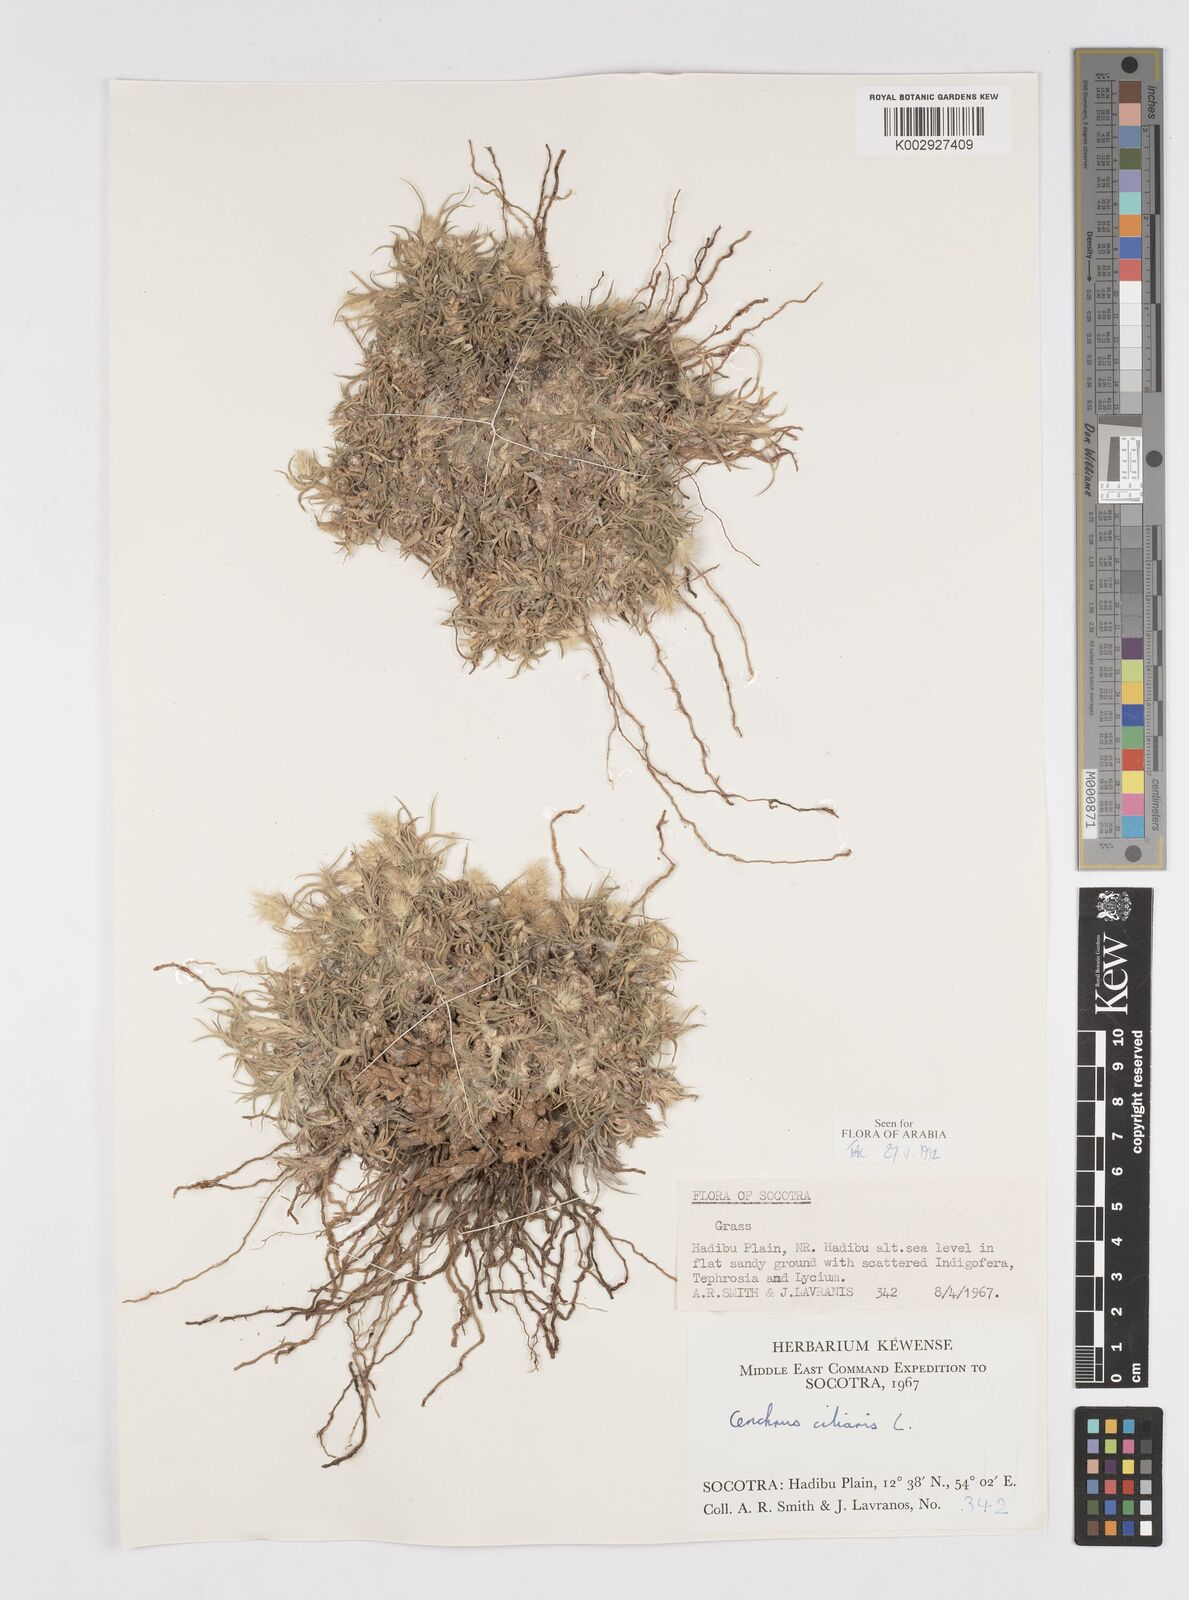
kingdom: Plantae
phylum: Tracheophyta
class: Liliopsida
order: Poales
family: Poaceae
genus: Cenchrus
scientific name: Cenchrus ciliaris
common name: Buffelgrass
